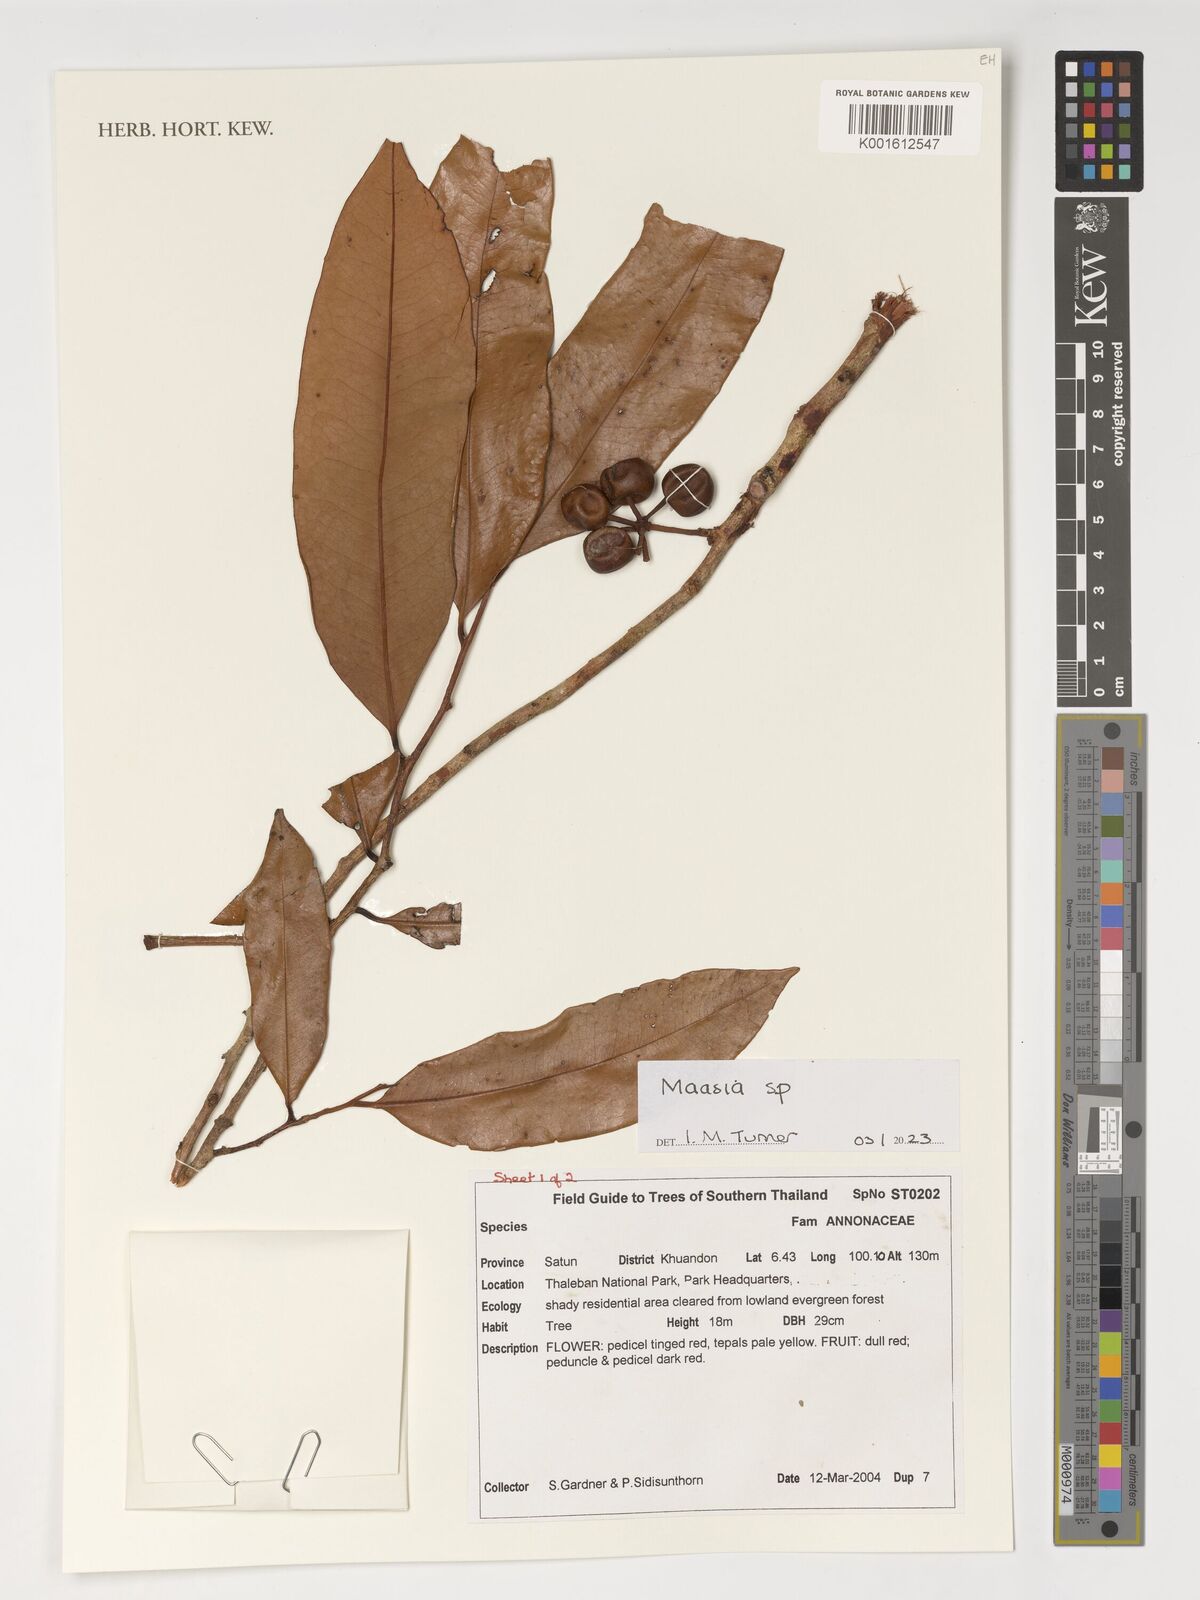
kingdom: Plantae
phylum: Tracheophyta
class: Magnoliopsida
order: Magnoliales
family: Annonaceae
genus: Maasia
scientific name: Maasia
